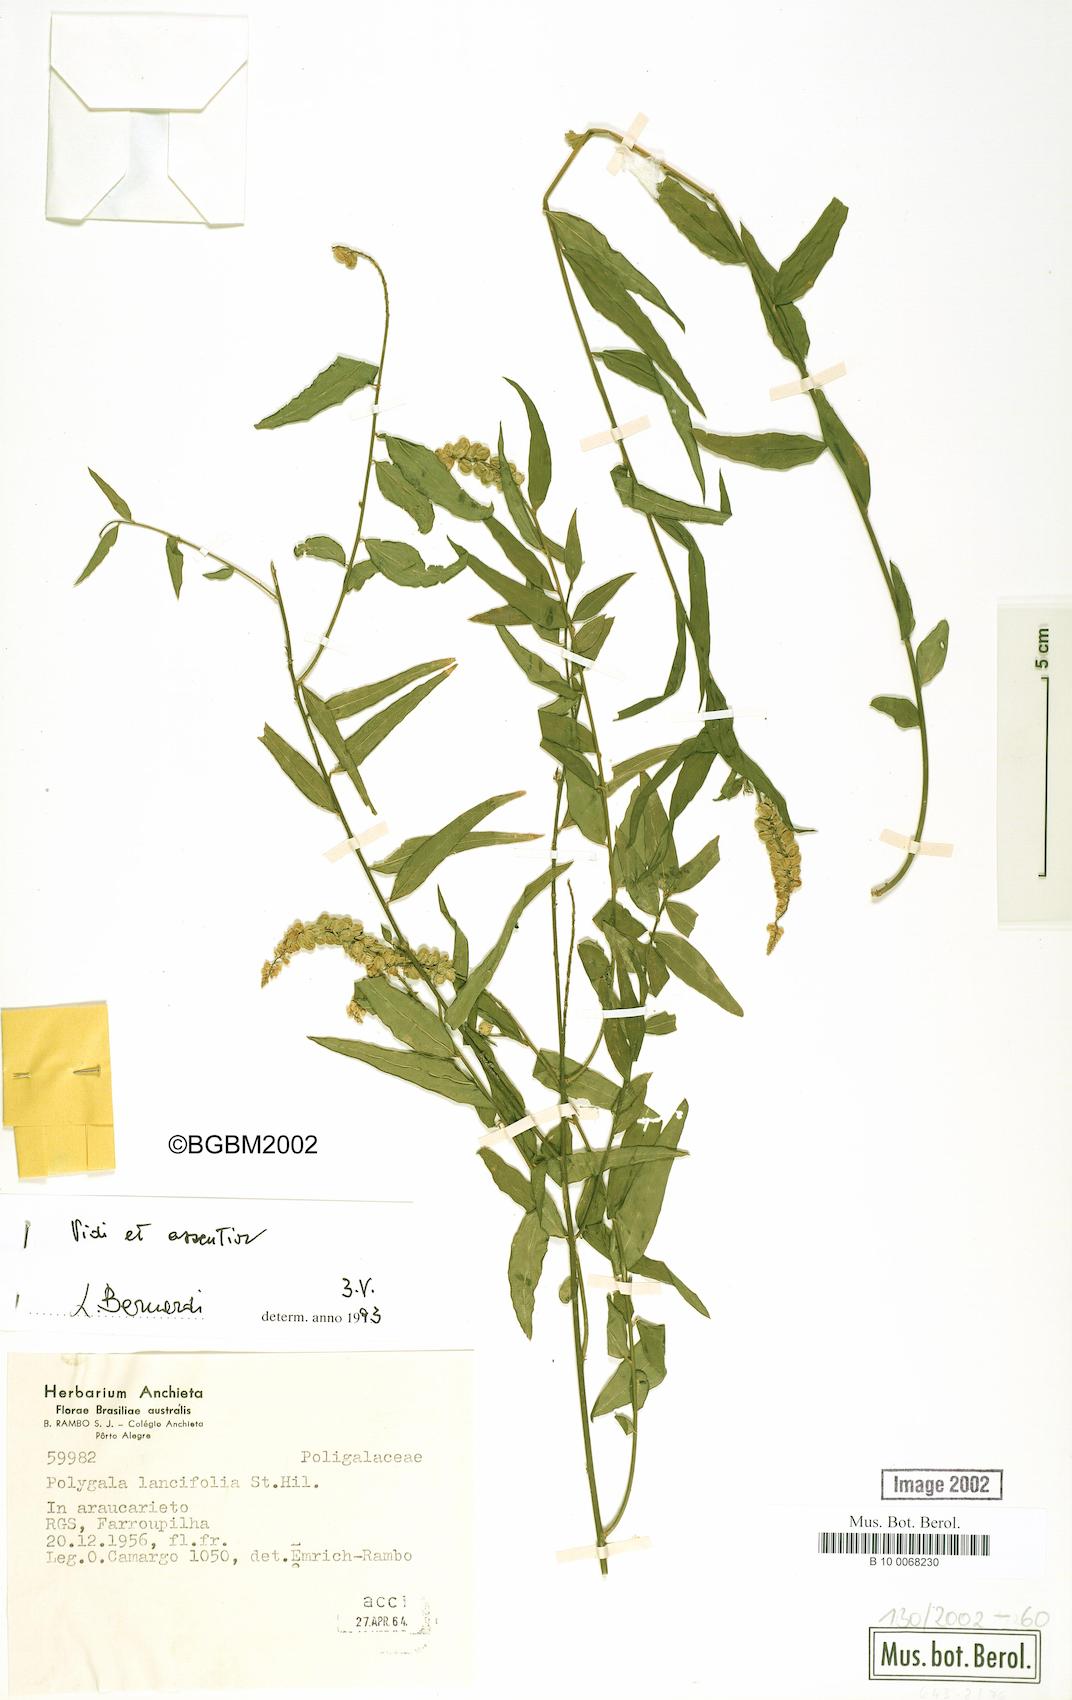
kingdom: Plantae
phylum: Tracheophyta
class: Magnoliopsida
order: Fabales
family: Polygalaceae
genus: Polygala
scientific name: Polygala lancifolia
